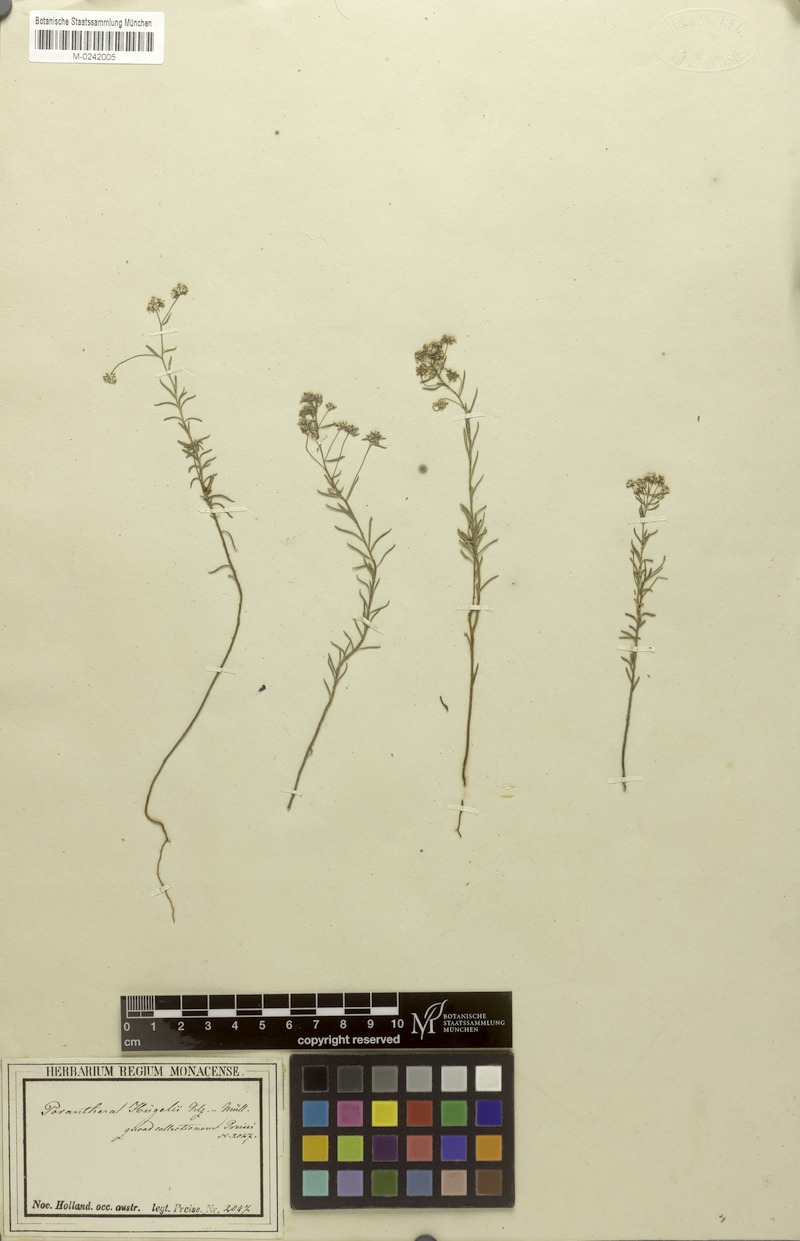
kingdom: Plantae
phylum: Tracheophyta
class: Magnoliopsida
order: Malpighiales
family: Phyllanthaceae
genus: Poranthera
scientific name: Poranthera huegelii
